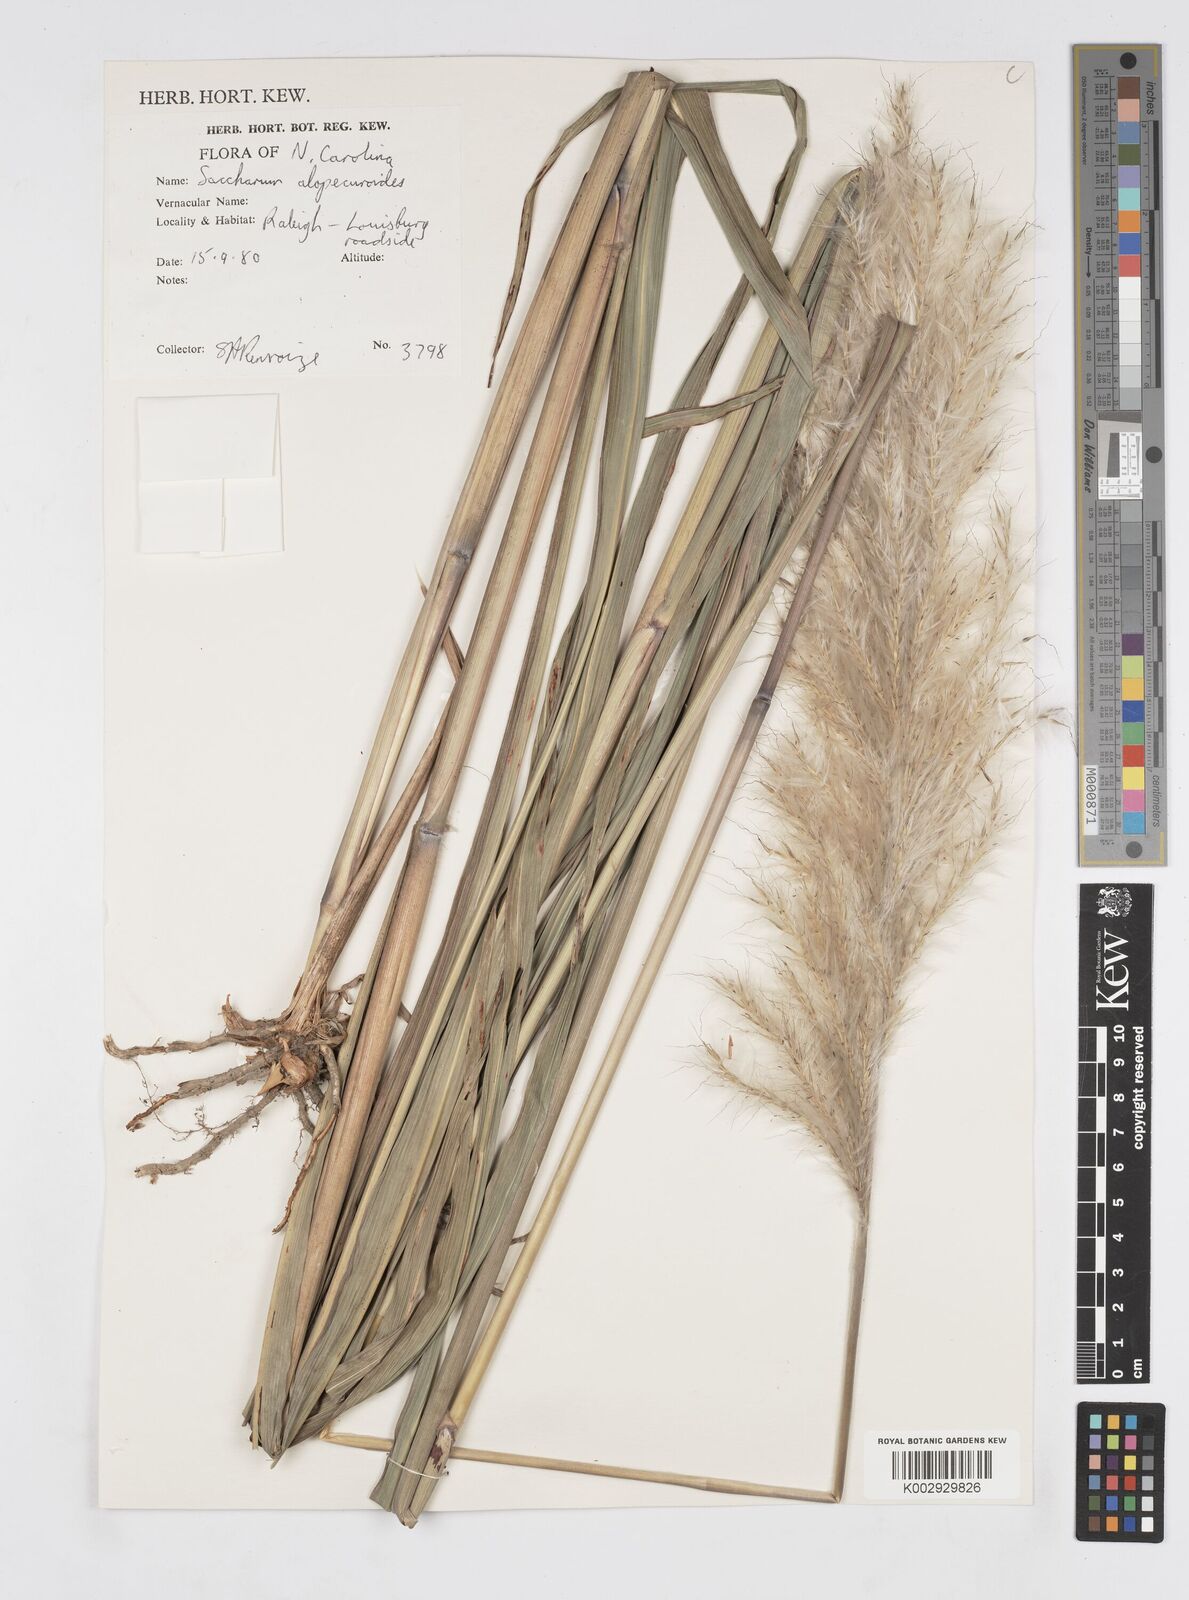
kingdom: Plantae
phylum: Tracheophyta
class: Liliopsida
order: Poales
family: Poaceae
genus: Erianthus
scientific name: Erianthus alopecuroides
